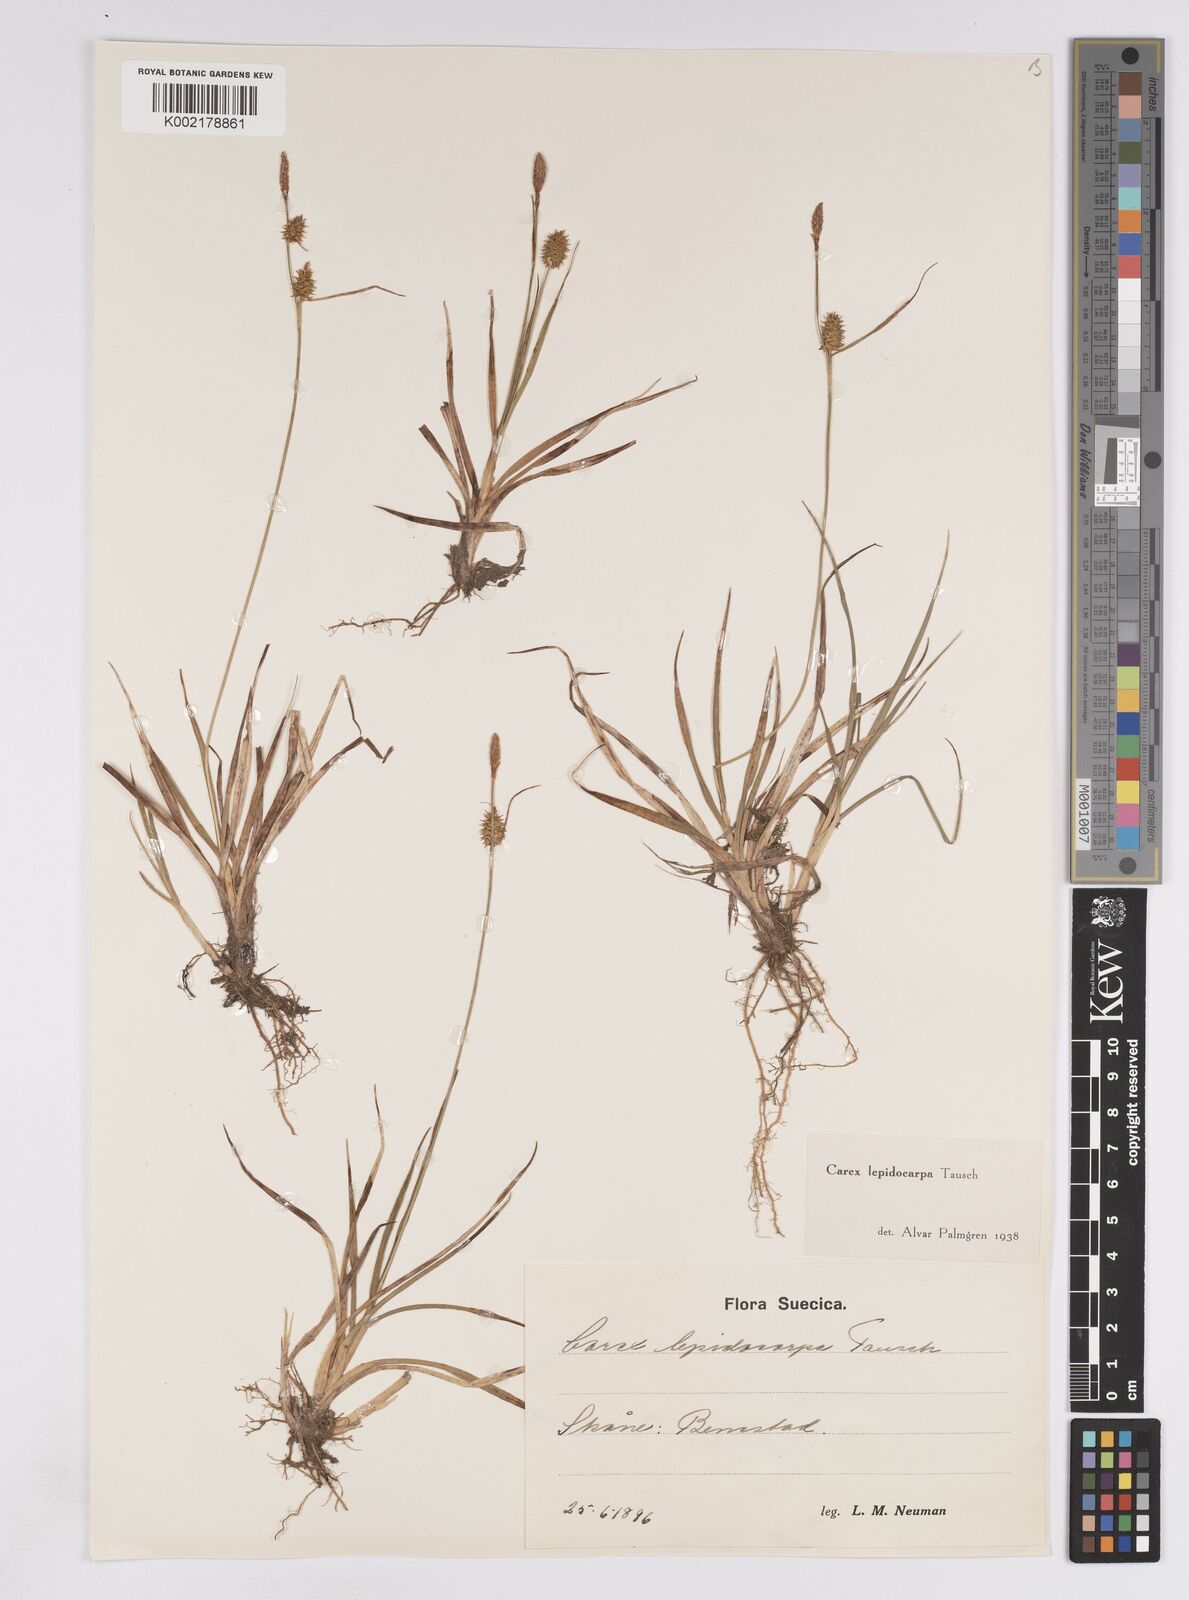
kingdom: Plantae
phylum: Tracheophyta
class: Liliopsida
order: Poales
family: Cyperaceae
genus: Carex
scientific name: Carex lepidocarpa
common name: Long-stalked yellow-sedge
